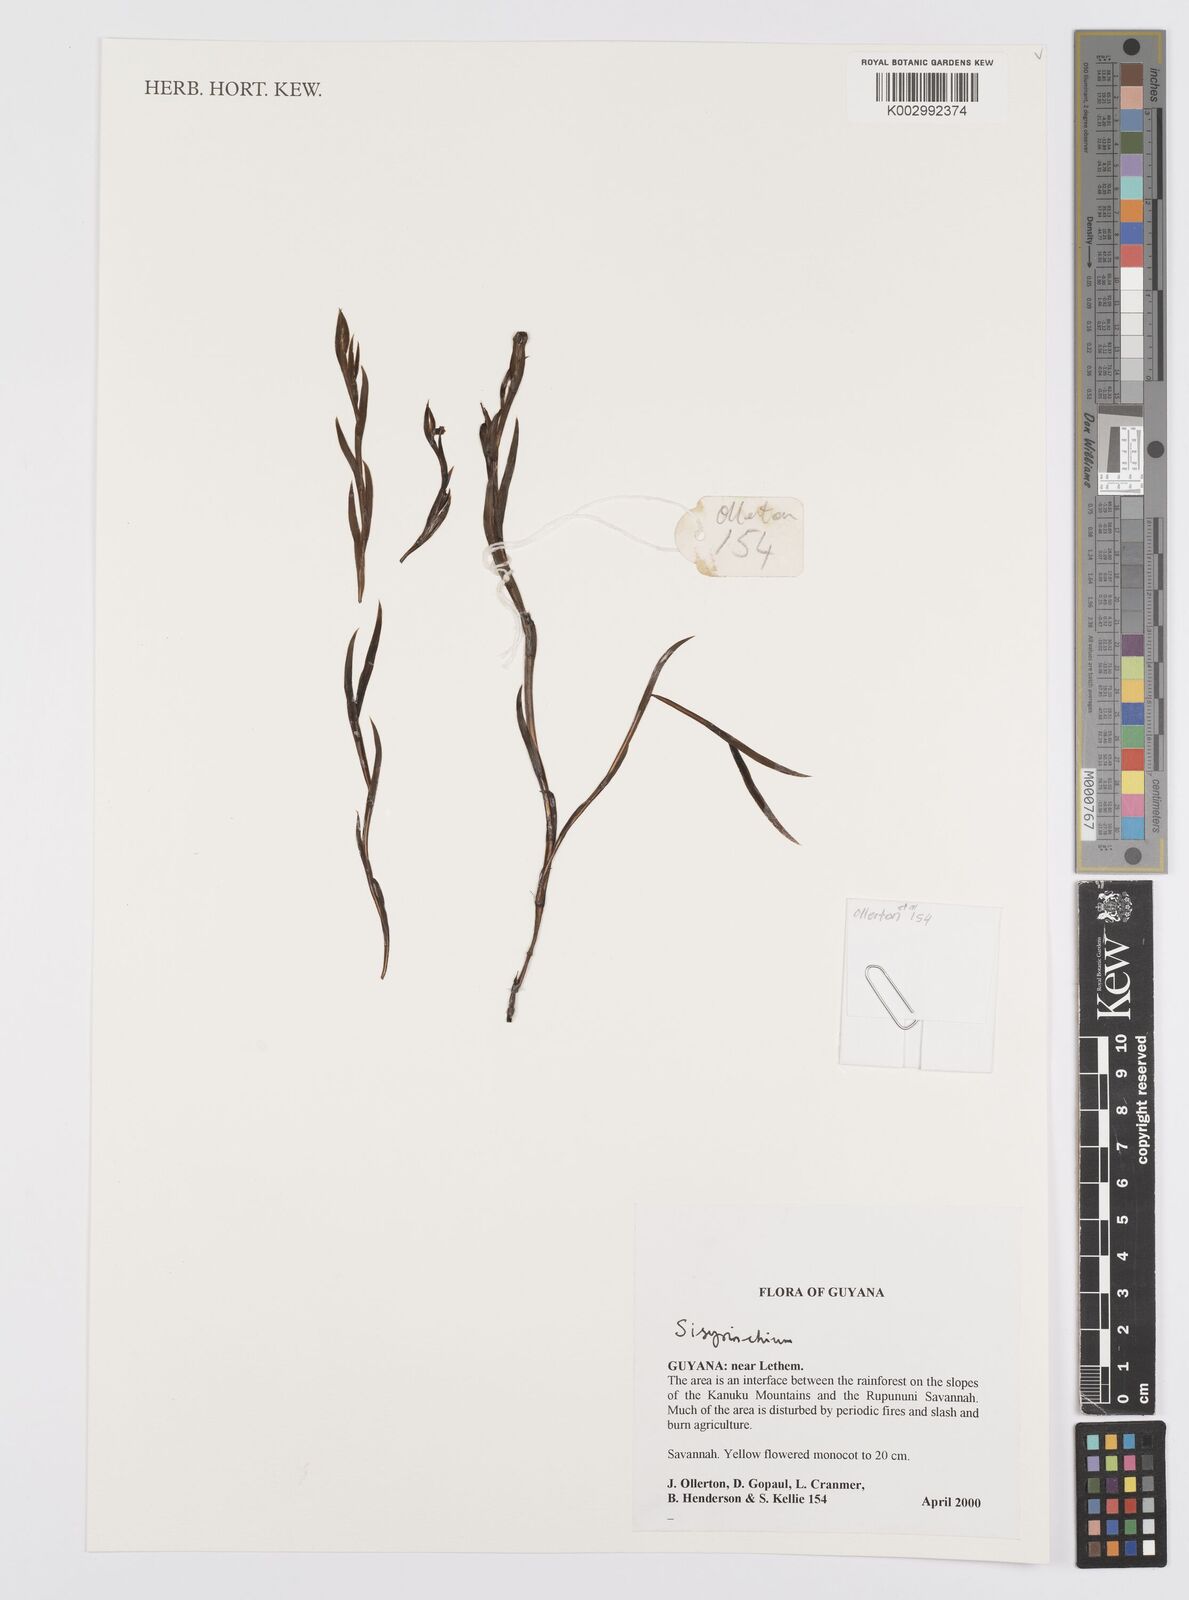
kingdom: Plantae
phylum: Tracheophyta
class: Liliopsida
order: Asparagales
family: Iridaceae
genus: Sisyrinchium
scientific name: Sisyrinchium
